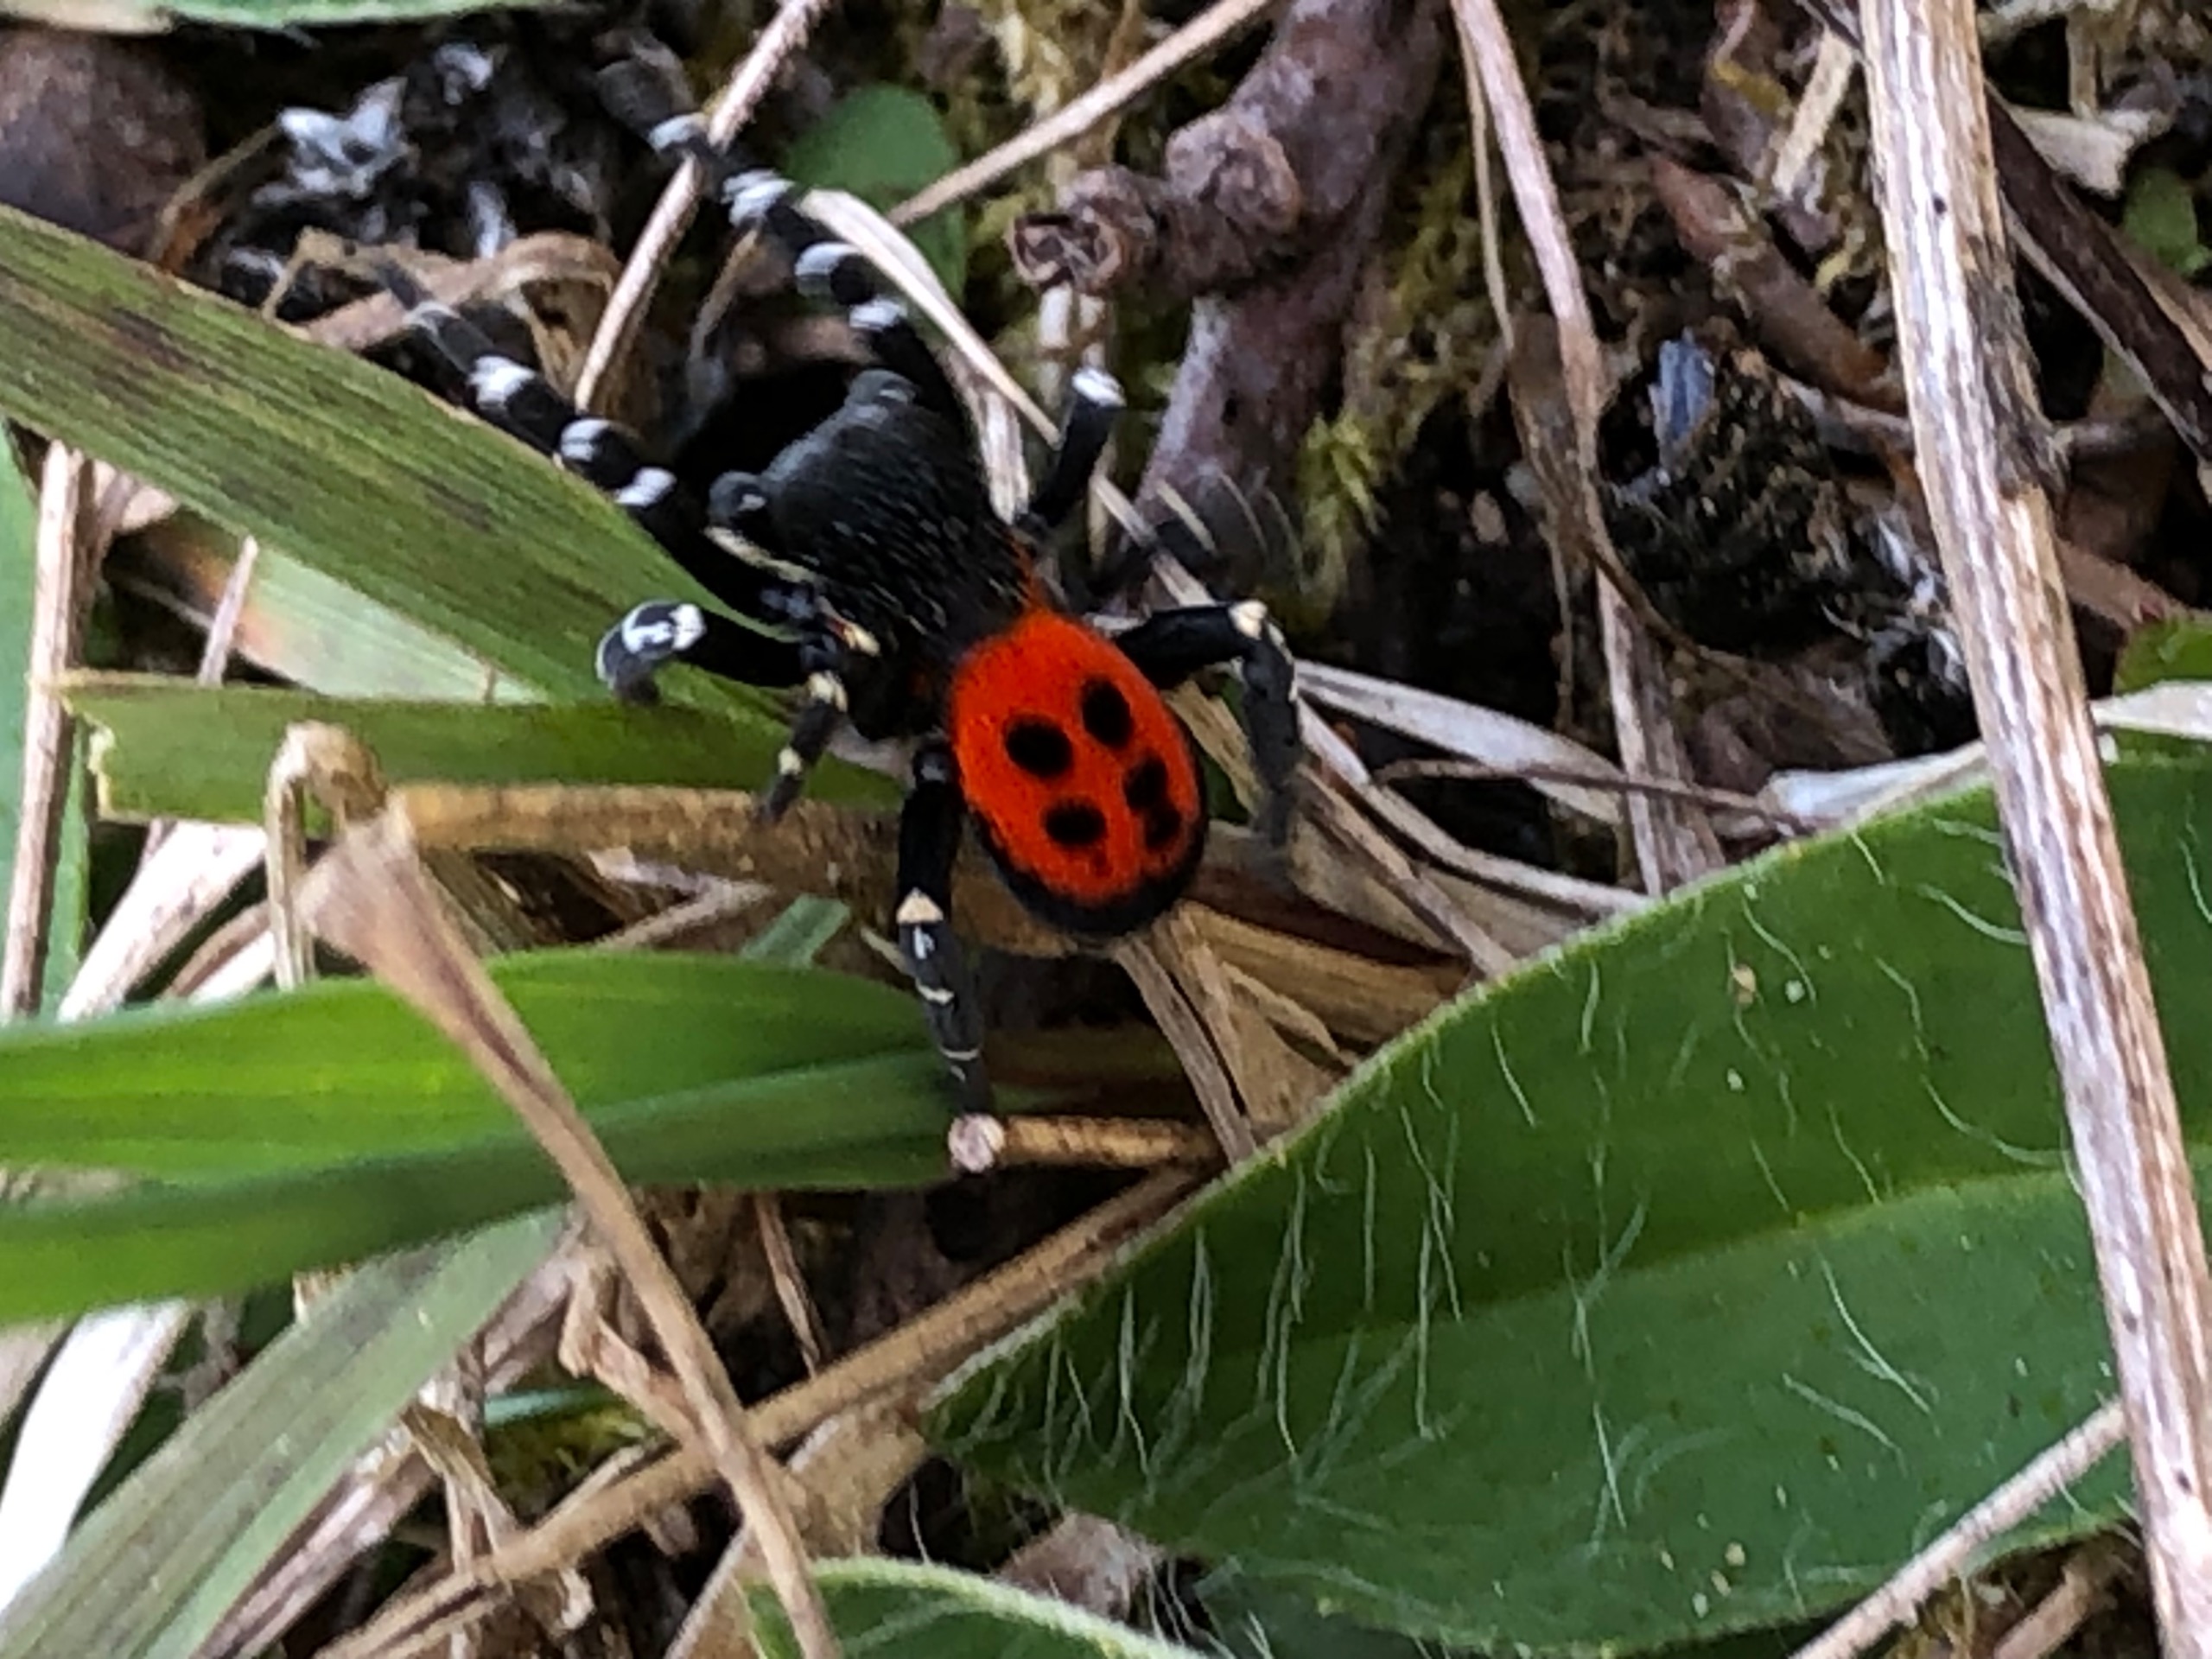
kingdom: Animalia
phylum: Arthropoda
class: Arachnida
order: Araneae
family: Eresidae
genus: Eresus
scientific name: Eresus sandaliatus
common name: Mariehøneedderkop
